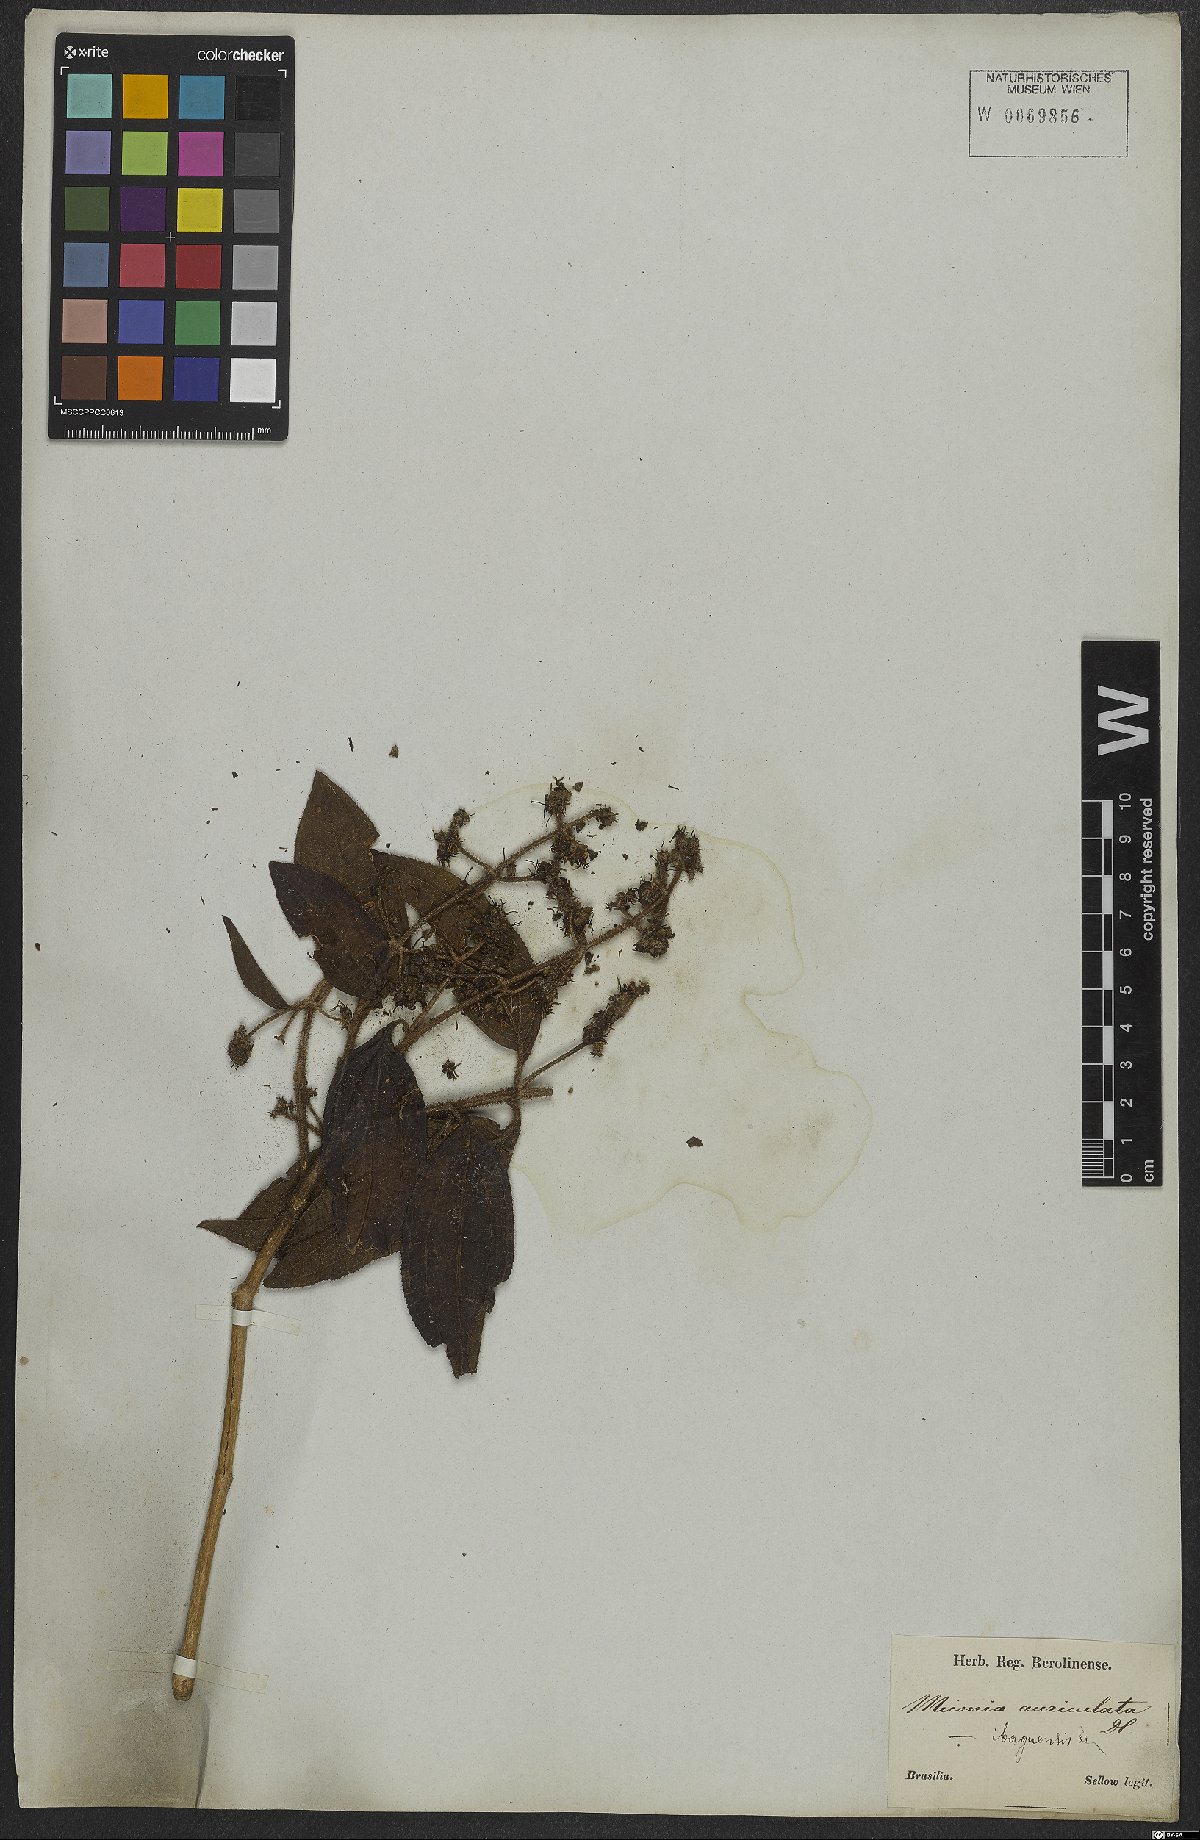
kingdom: Plantae
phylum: Tracheophyta
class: Magnoliopsida
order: Myrtales
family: Melastomataceae
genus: Miconia
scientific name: Miconia ibaguensis
